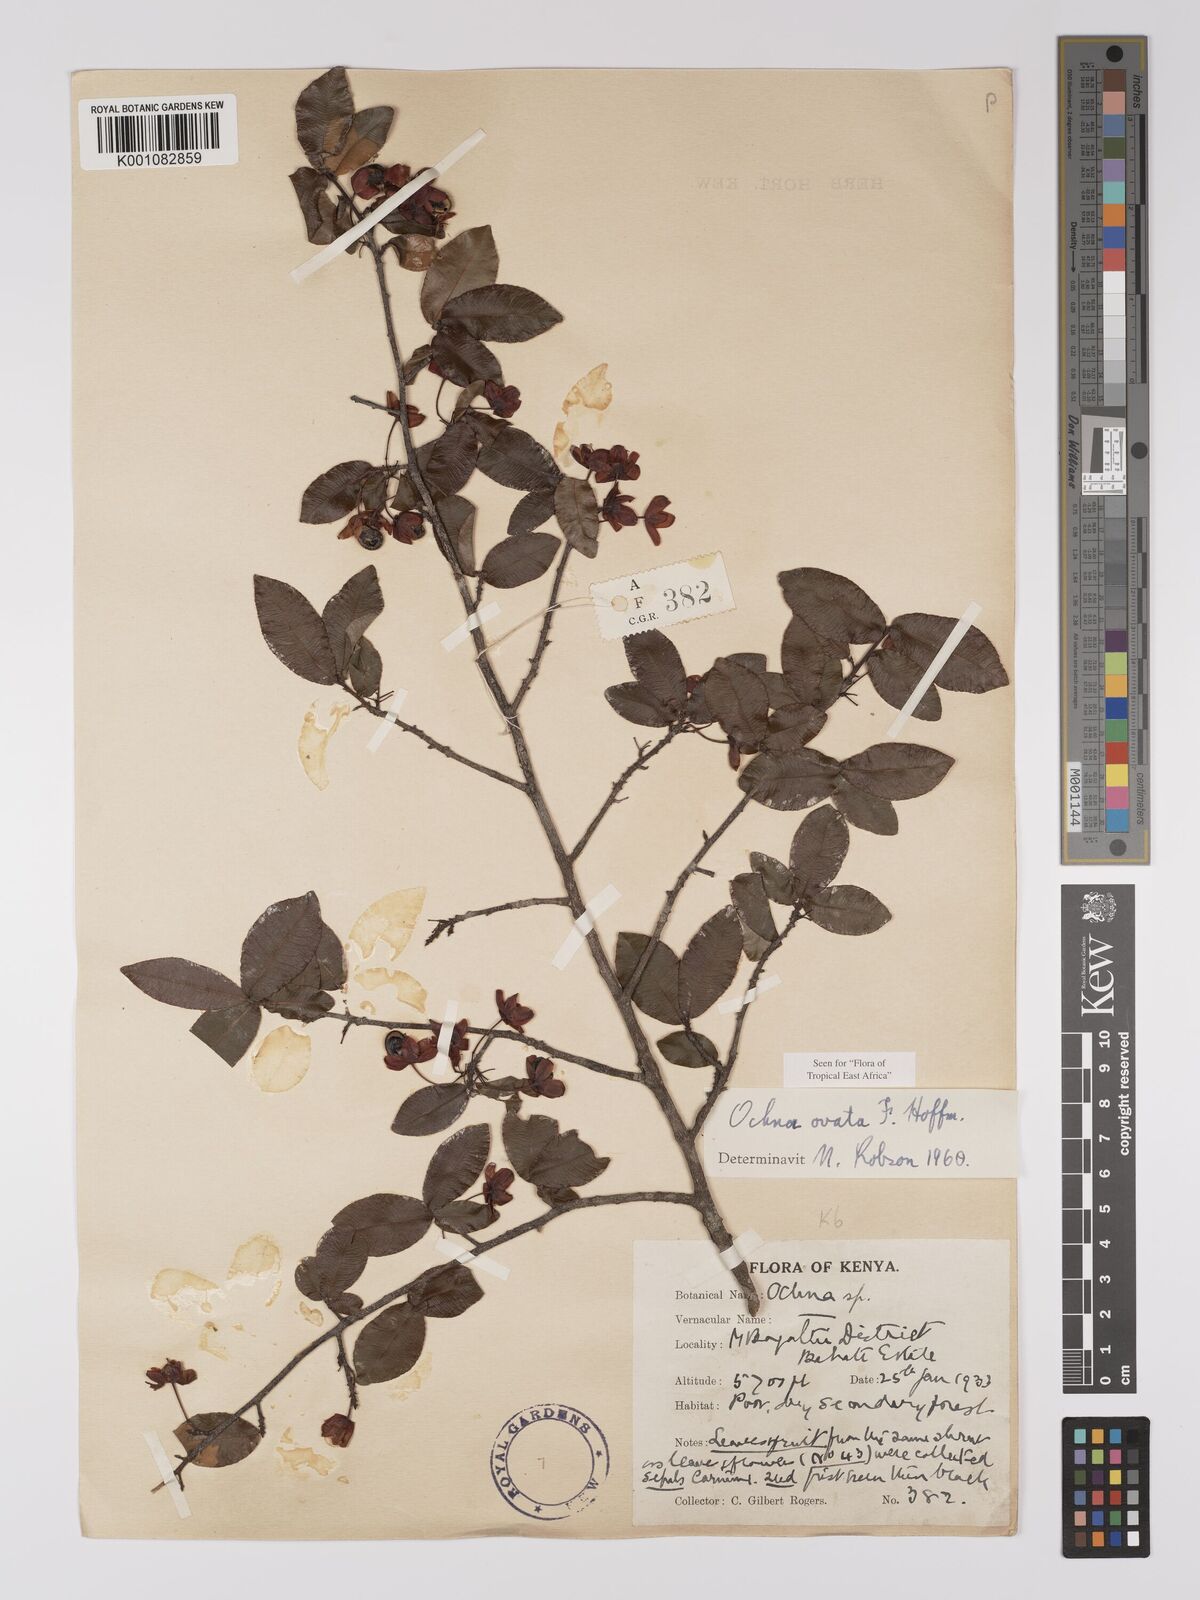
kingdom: Plantae
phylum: Tracheophyta
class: Magnoliopsida
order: Malpighiales
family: Ochnaceae
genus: Ochna
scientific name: Ochna ovata
